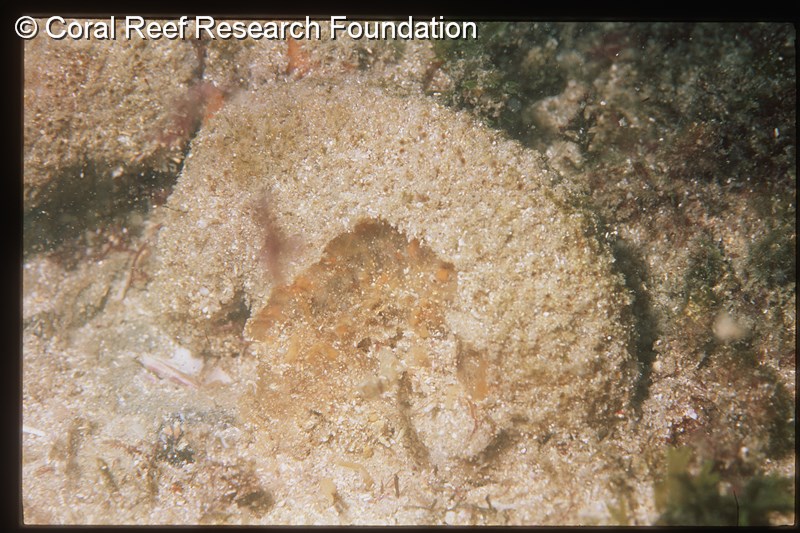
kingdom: Animalia
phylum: Chordata
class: Ascidiacea
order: Aplousobranchia
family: Polyclinidae
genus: Polyclinum
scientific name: Polyclinum isipingense
